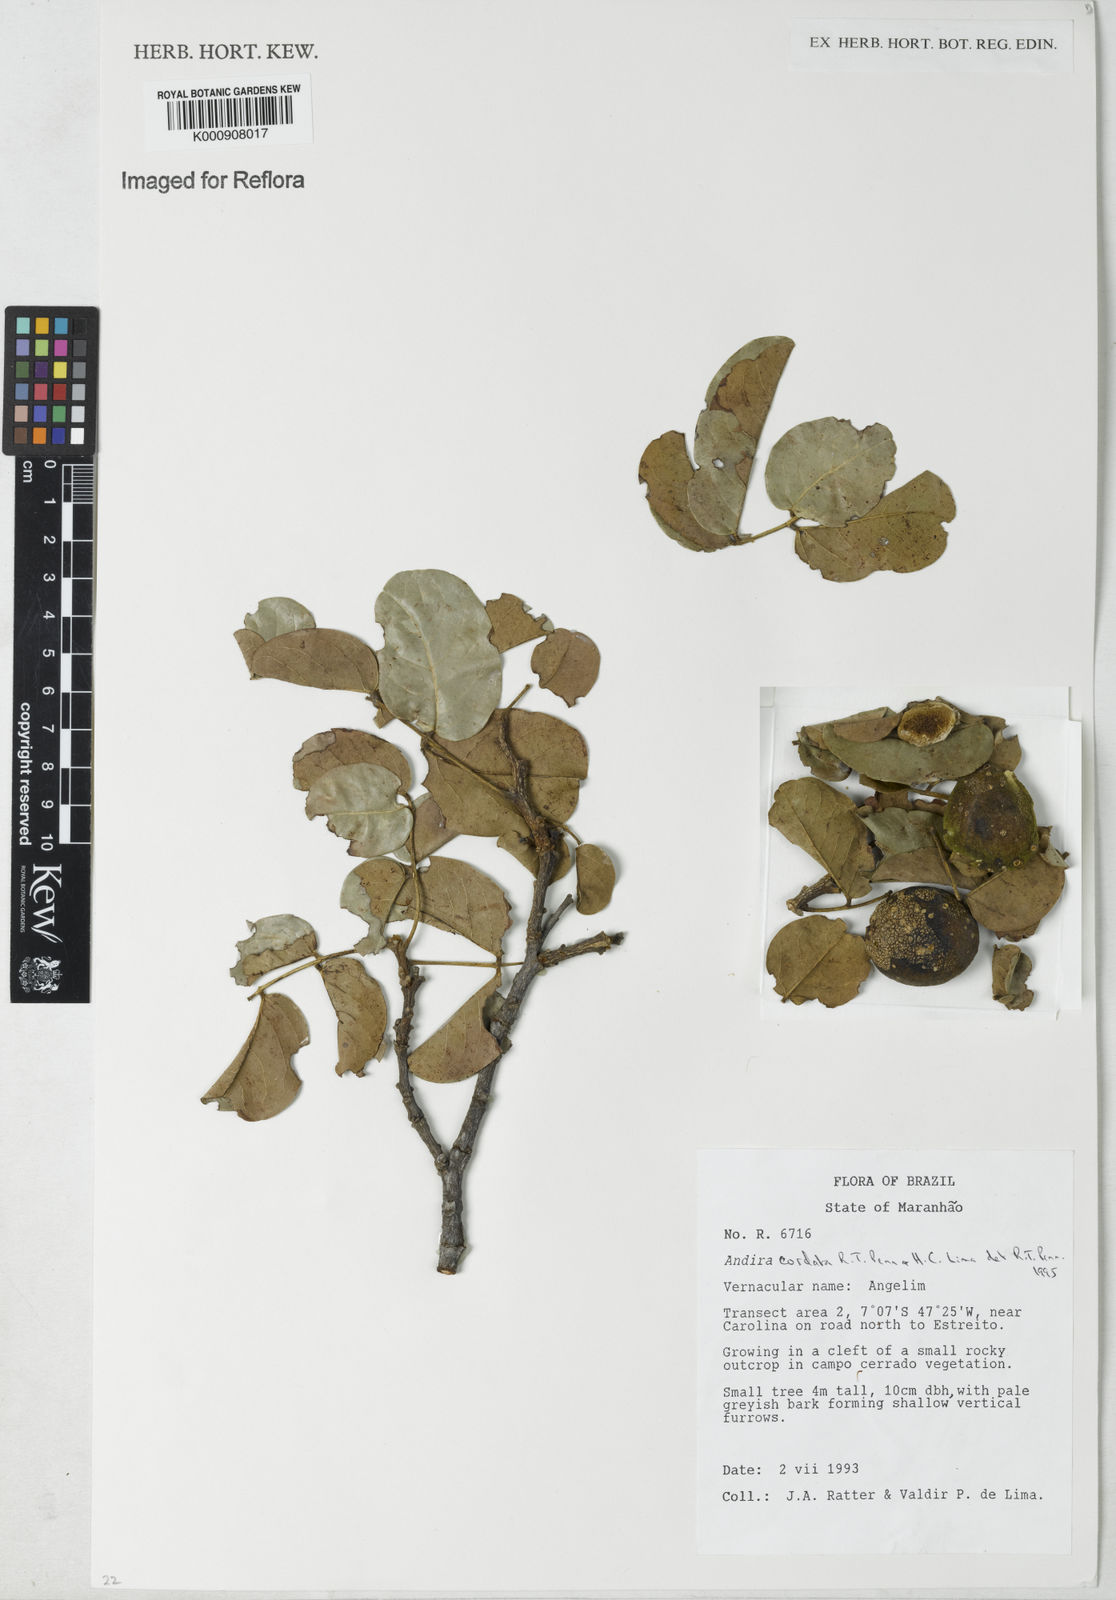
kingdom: Plantae
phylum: Tracheophyta
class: Magnoliopsida
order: Fabales
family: Fabaceae
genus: Andira
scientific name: Andira cordata
